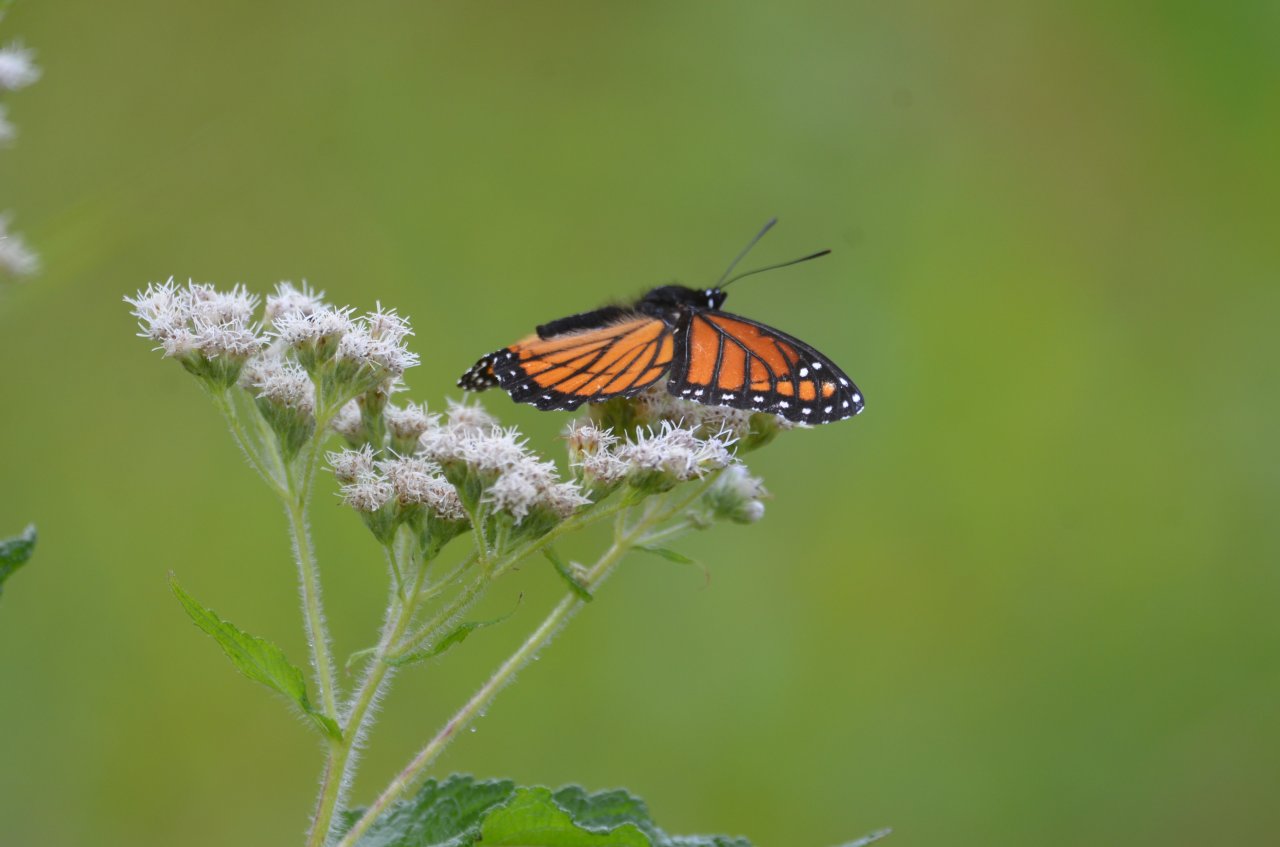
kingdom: Animalia
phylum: Arthropoda
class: Insecta
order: Lepidoptera
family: Nymphalidae
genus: Limenitis
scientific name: Limenitis archippus
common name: Viceroy
